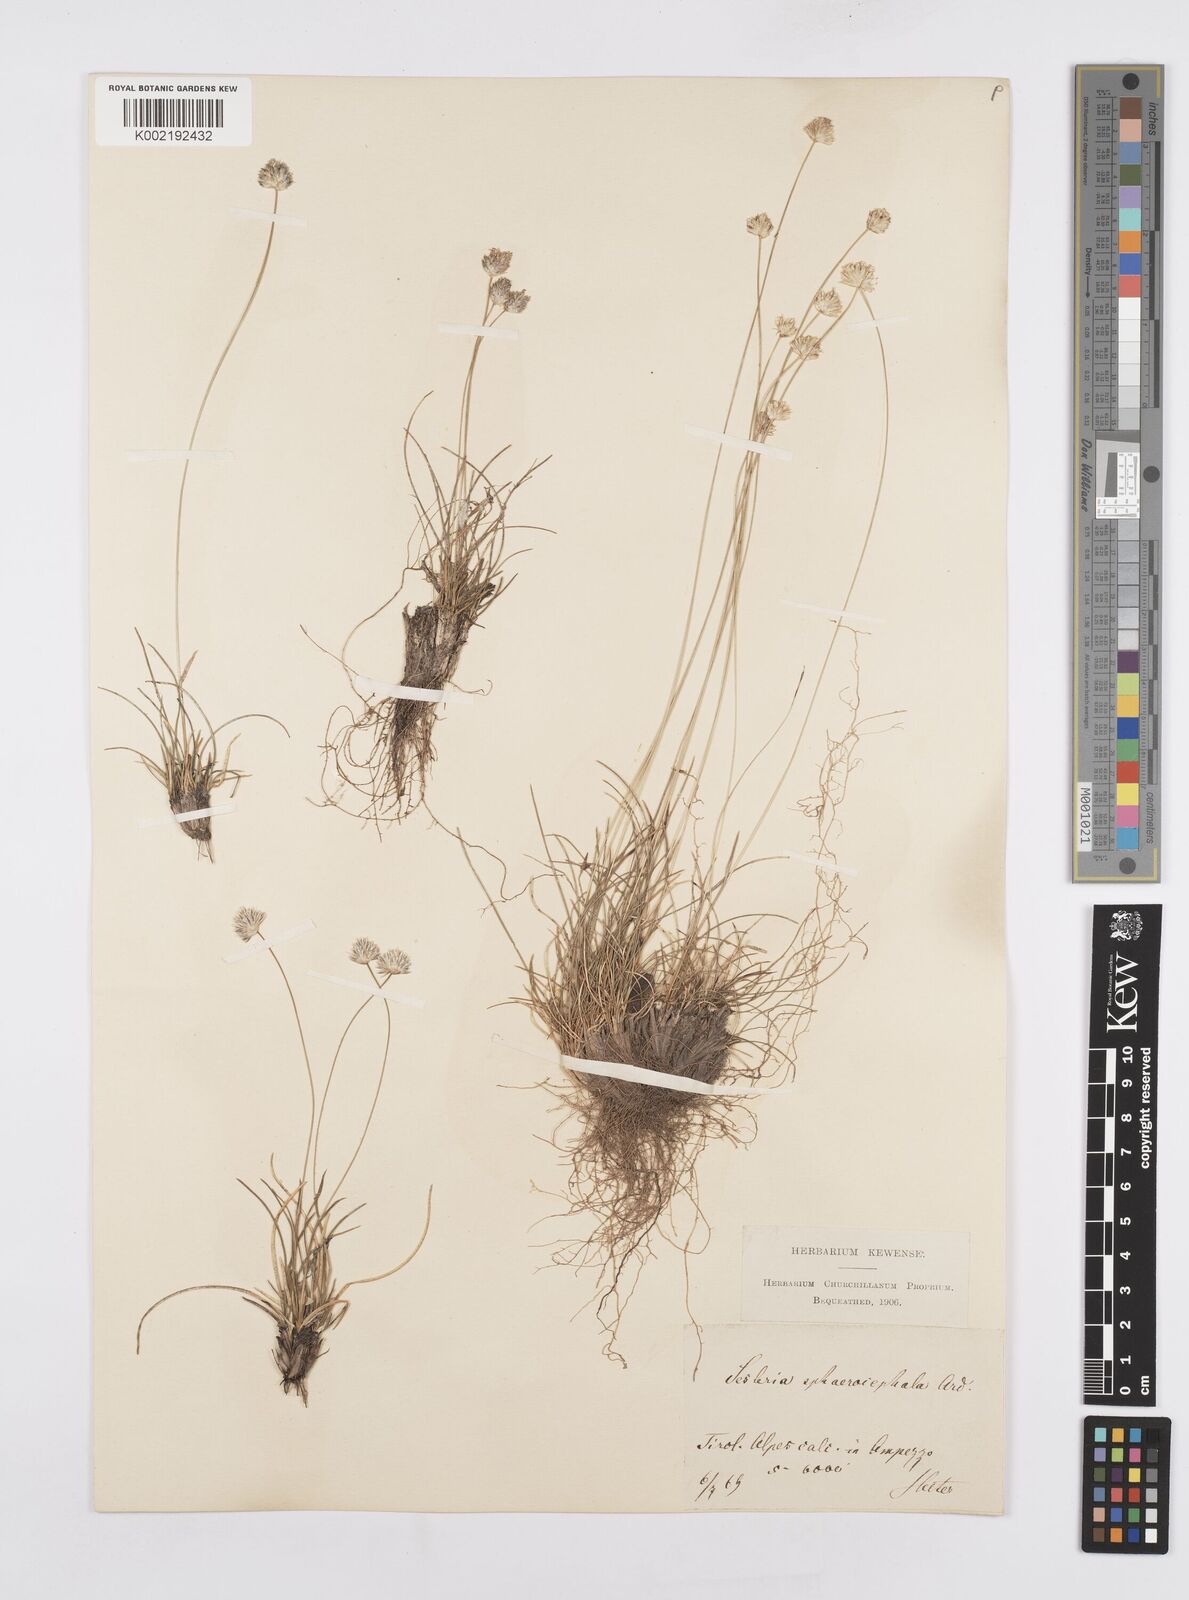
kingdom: Plantae
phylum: Tracheophyta
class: Liliopsida
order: Poales
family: Poaceae
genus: Sesleriella
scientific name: Sesleriella sphaerocephala
